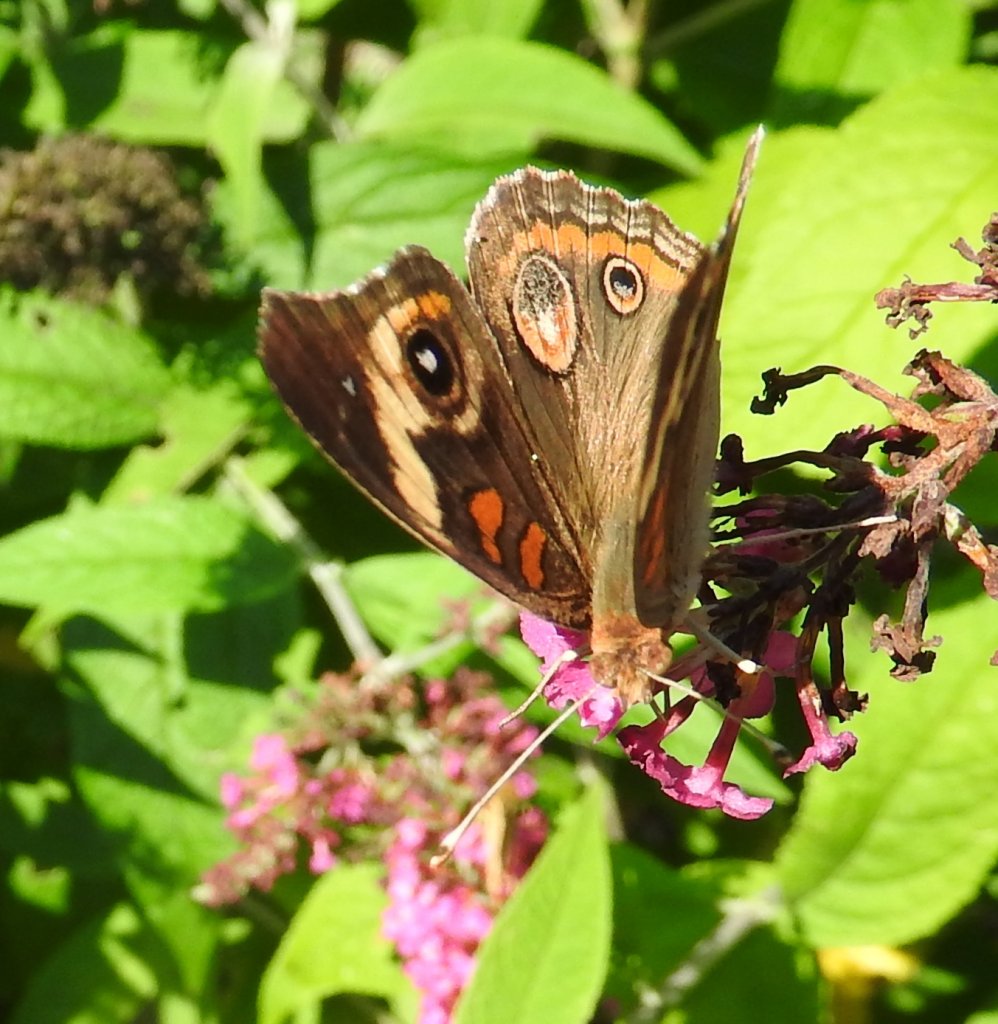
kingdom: Animalia
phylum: Arthropoda
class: Insecta
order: Lepidoptera
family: Nymphalidae
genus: Junonia
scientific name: Junonia coenia
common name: Common Buckeye
